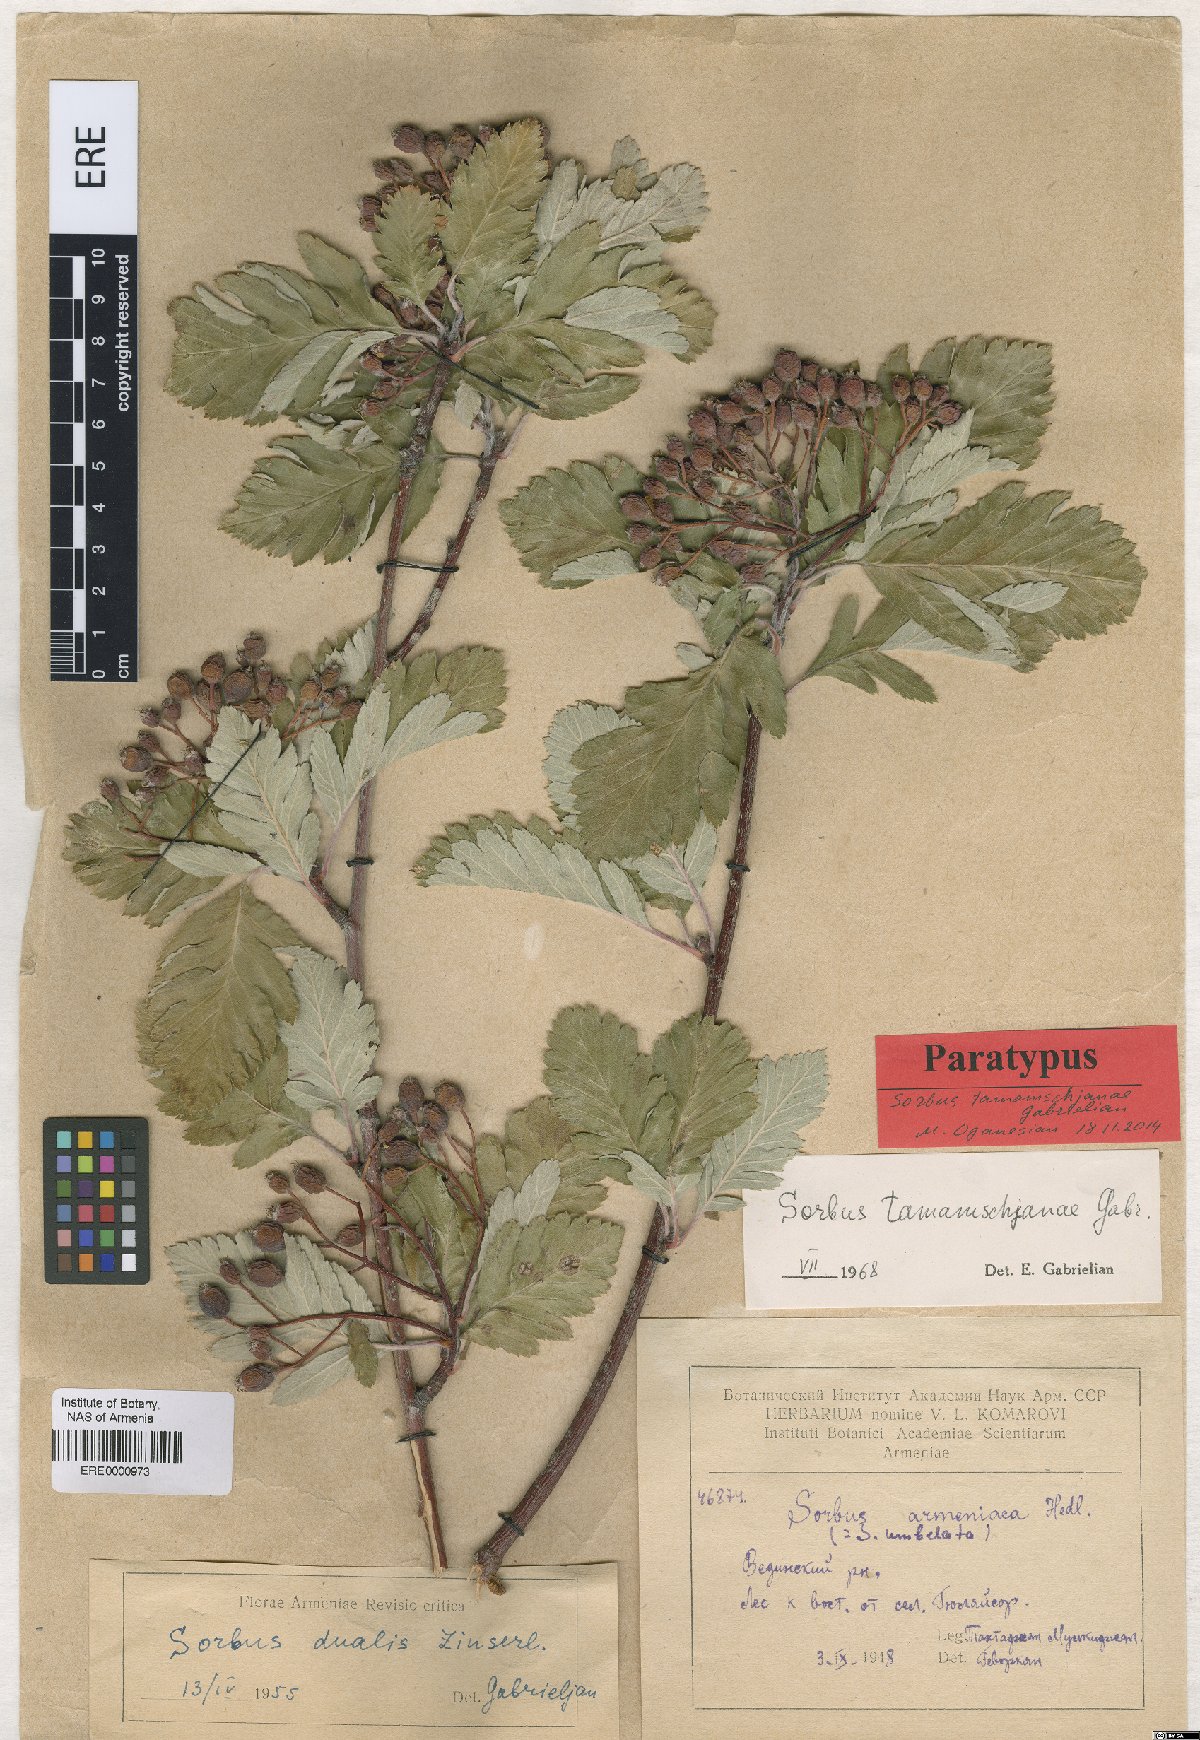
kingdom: Plantae
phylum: Tracheophyta
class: Magnoliopsida
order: Rosales
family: Rosaceae
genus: Hedlundia
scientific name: Hedlundia tamamschjanae
